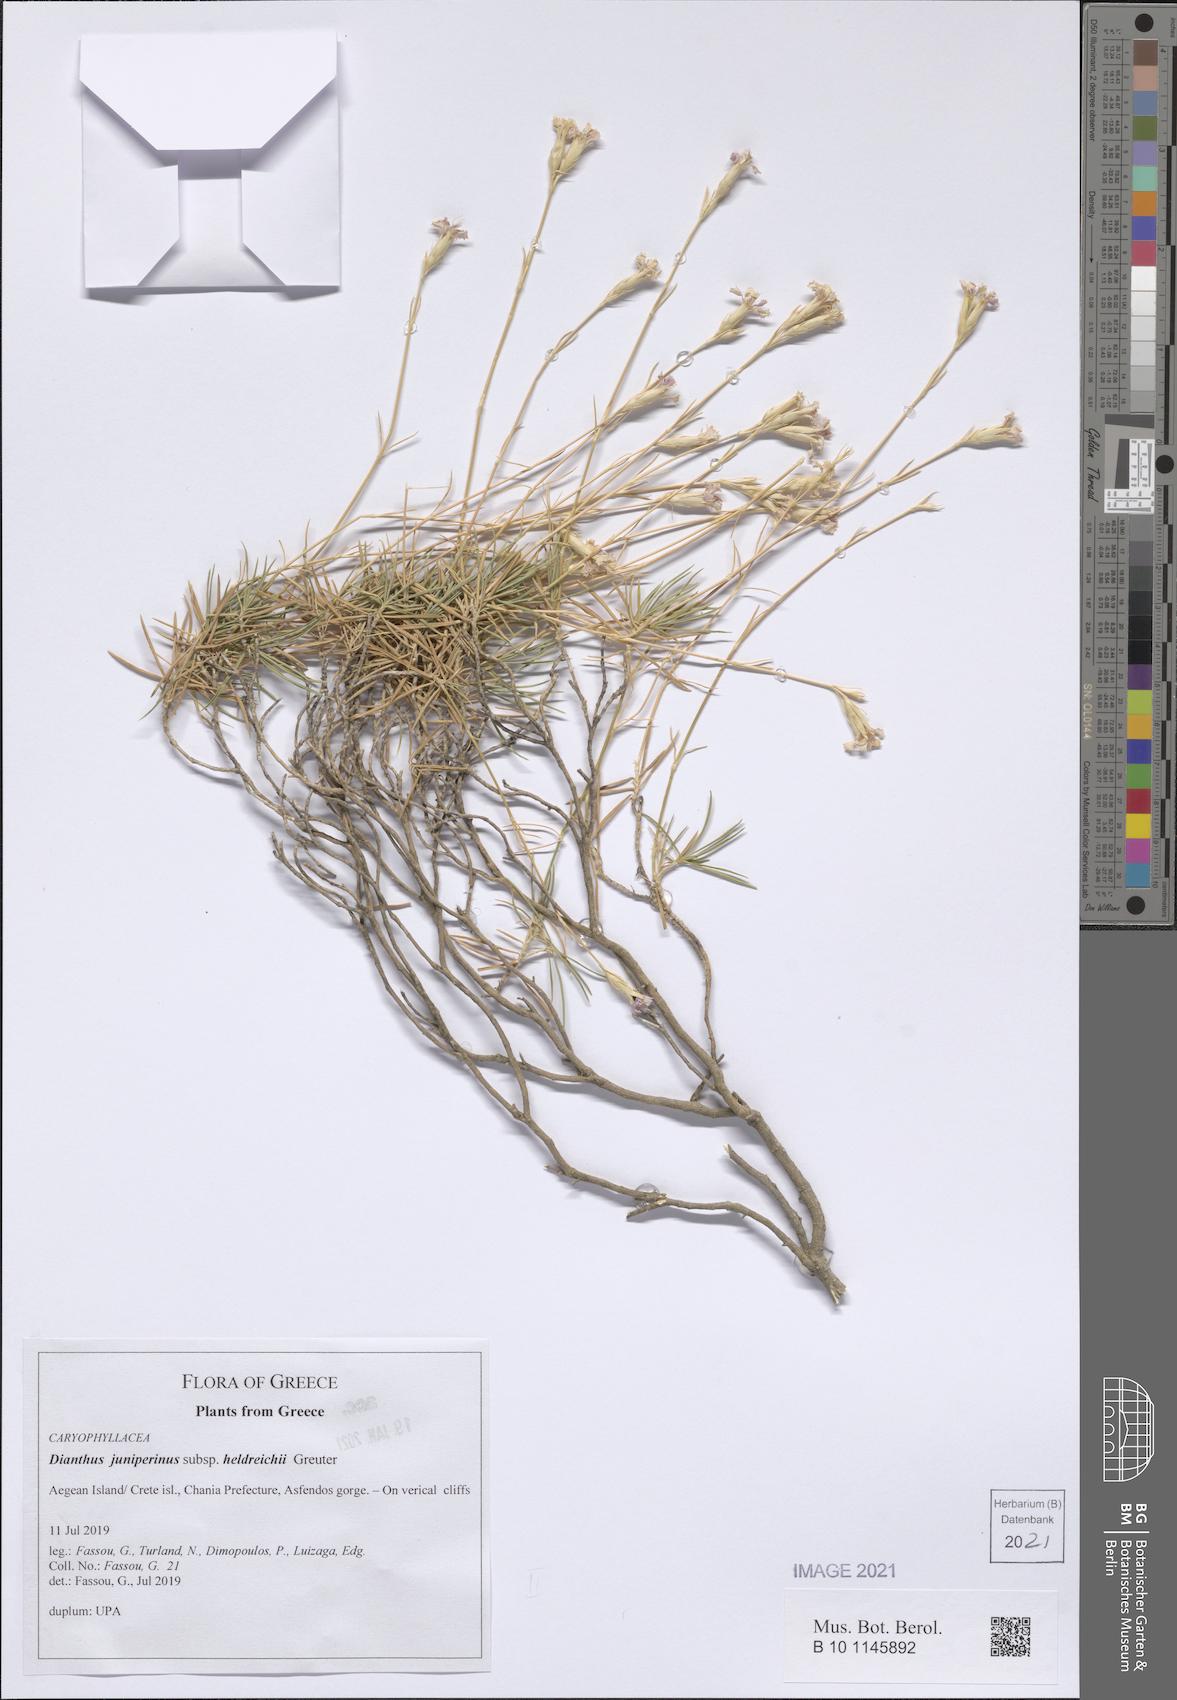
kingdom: Plantae
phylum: Tracheophyta
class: Magnoliopsida
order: Caryophyllales
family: Caryophyllaceae
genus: Dianthus
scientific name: Dianthus juniperinus
